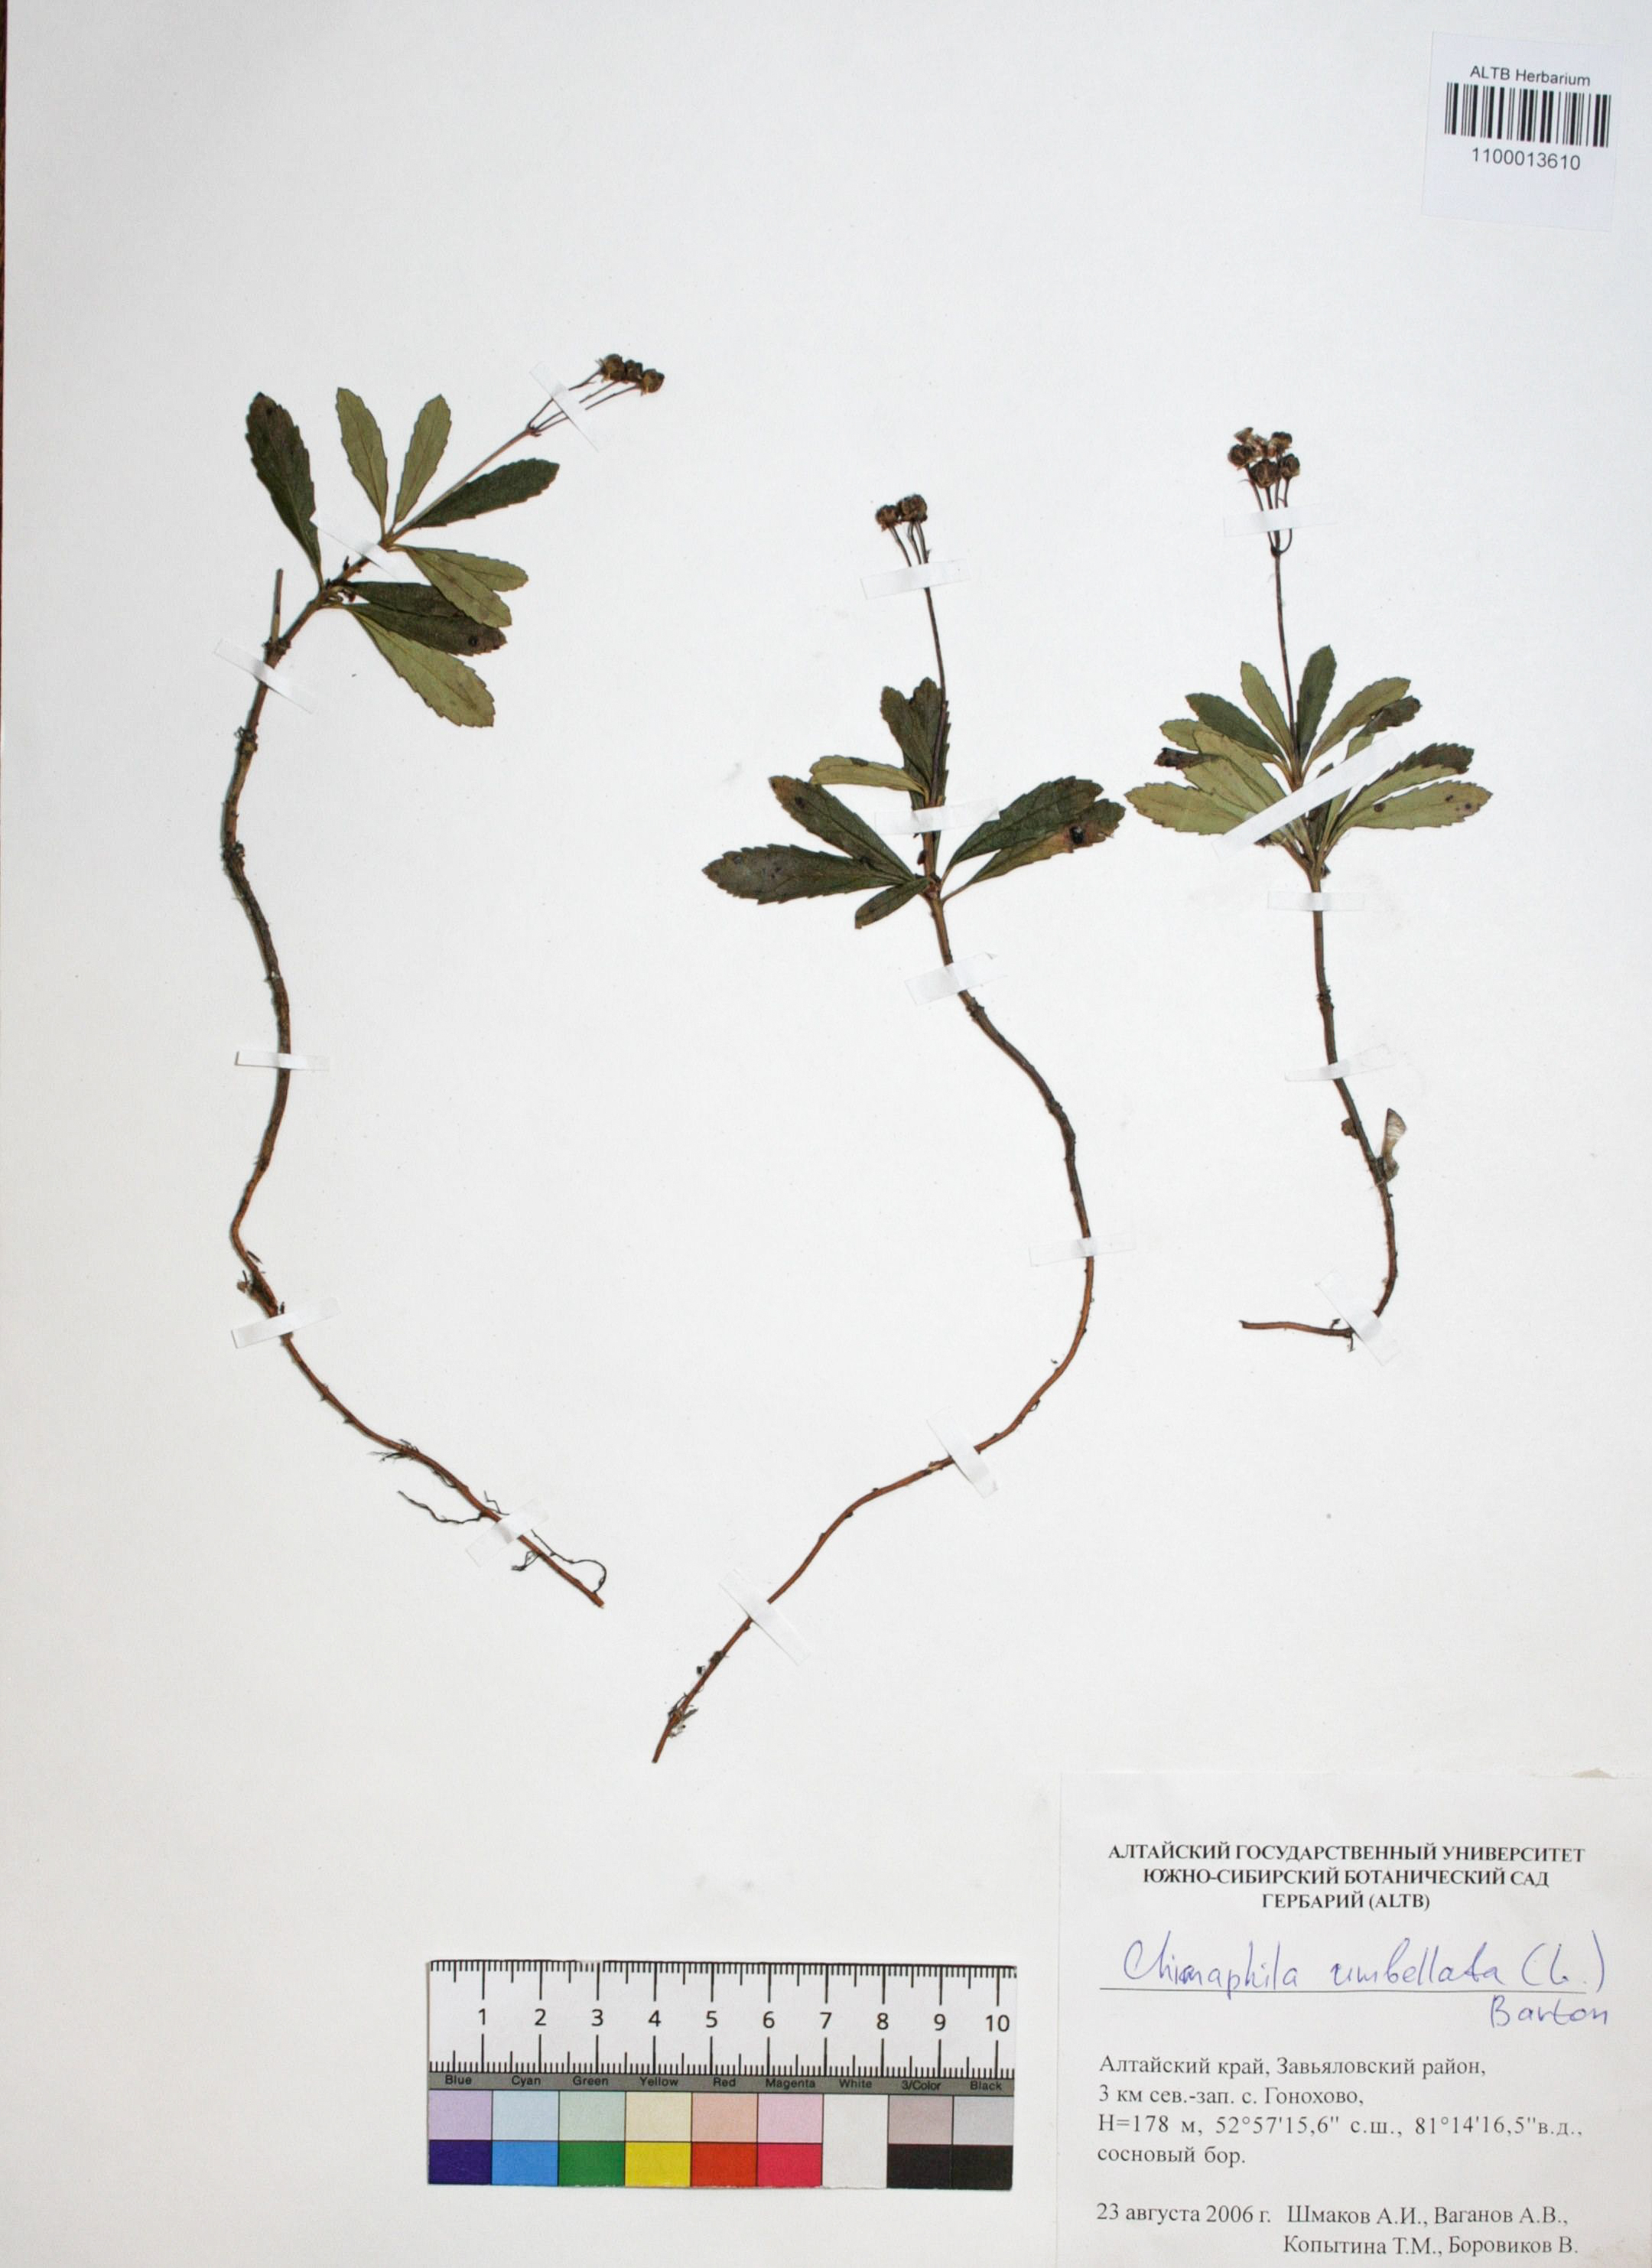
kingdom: Plantae
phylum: Tracheophyta
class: Magnoliopsida
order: Ericales
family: Ericaceae
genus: Chimaphila
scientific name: Chimaphila umbellata
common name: Pipsissewa
